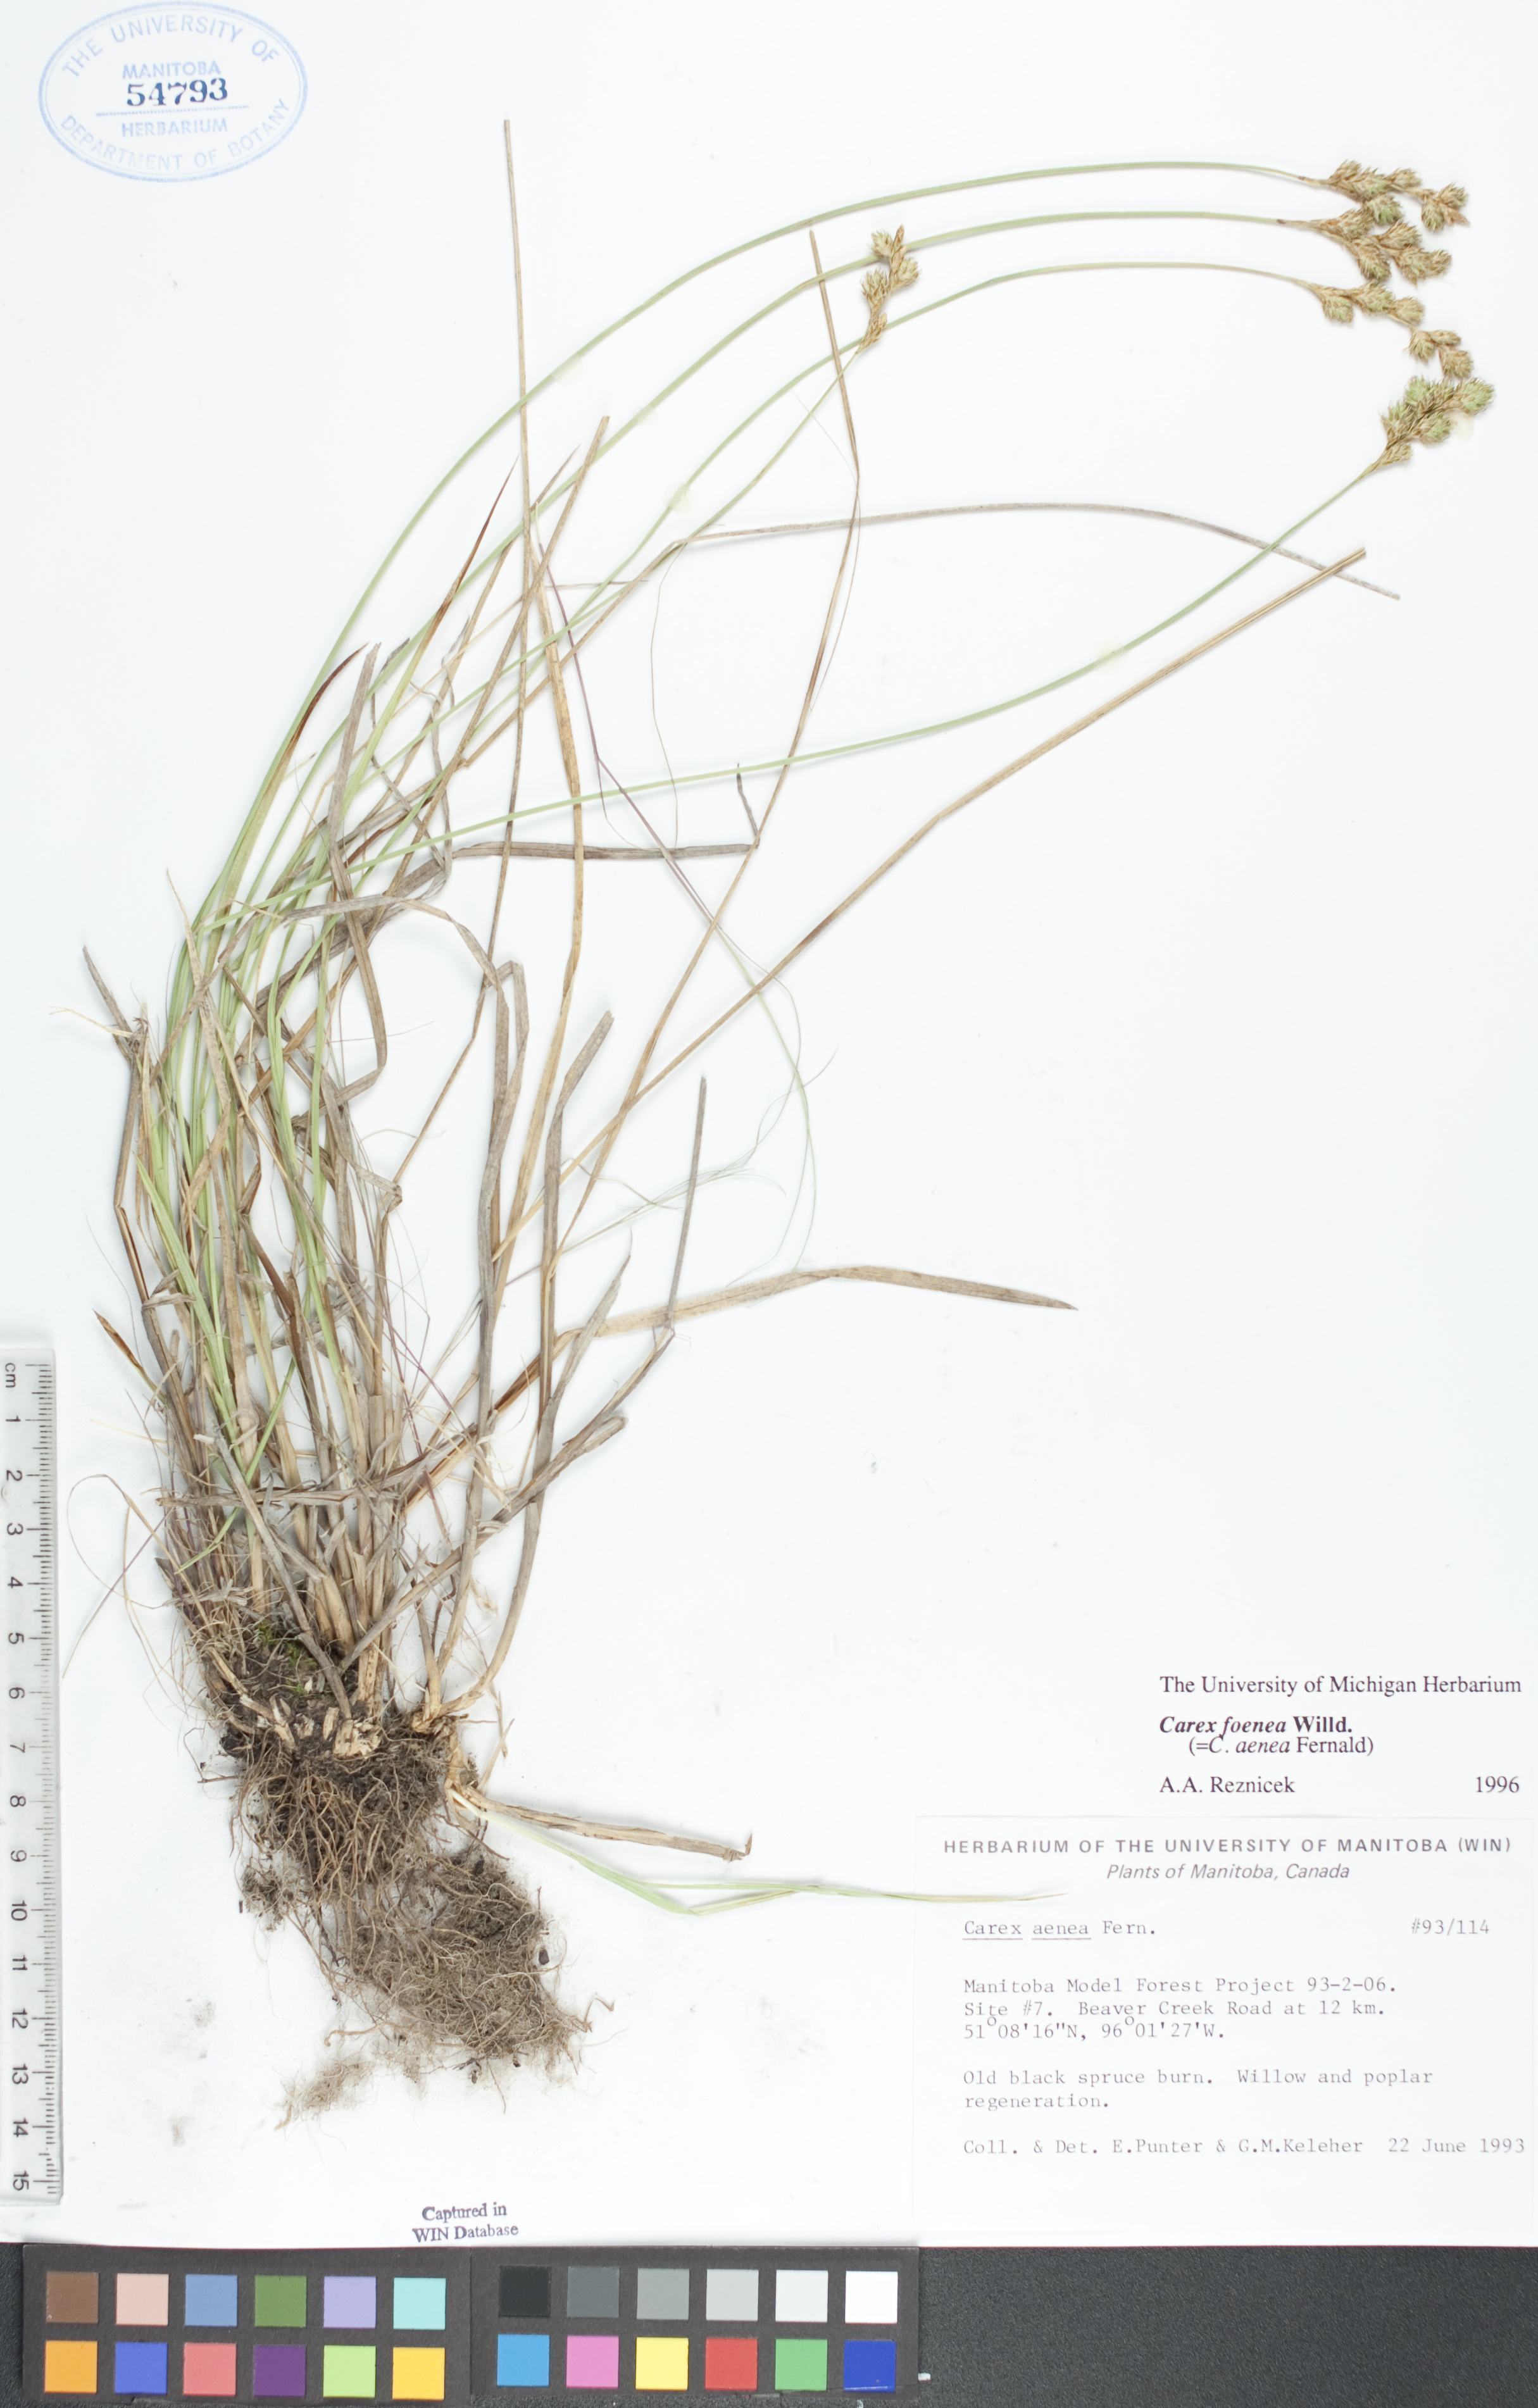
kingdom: Plantae
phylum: Tracheophyta
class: Liliopsida
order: Poales
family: Cyperaceae
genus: Carex
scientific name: Carex foenea
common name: Bronze sedge
